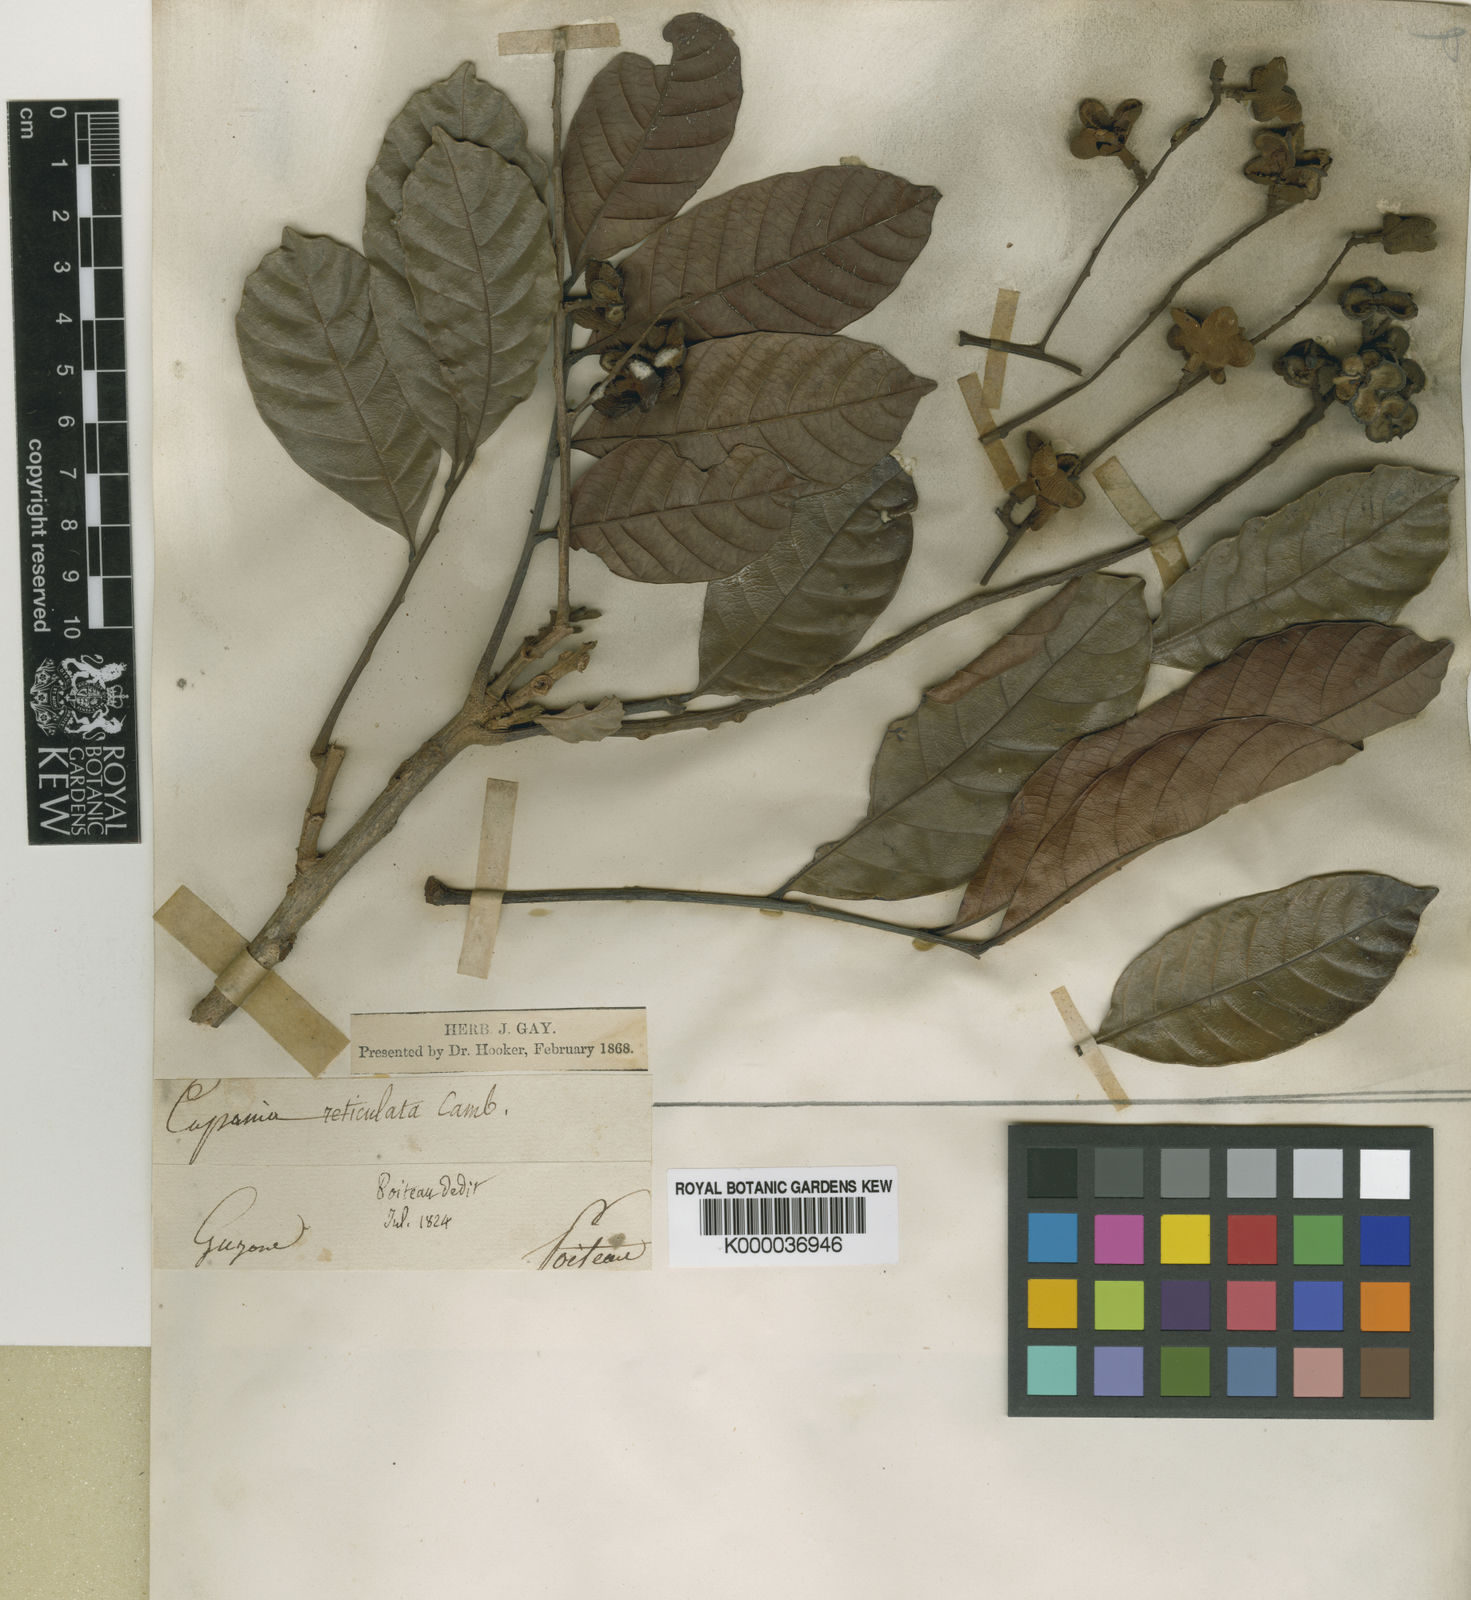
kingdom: Plantae
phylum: Tracheophyta
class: Magnoliopsida
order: Sapindales
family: Sapindaceae
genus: Cupania
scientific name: Cupania scrobiculata
